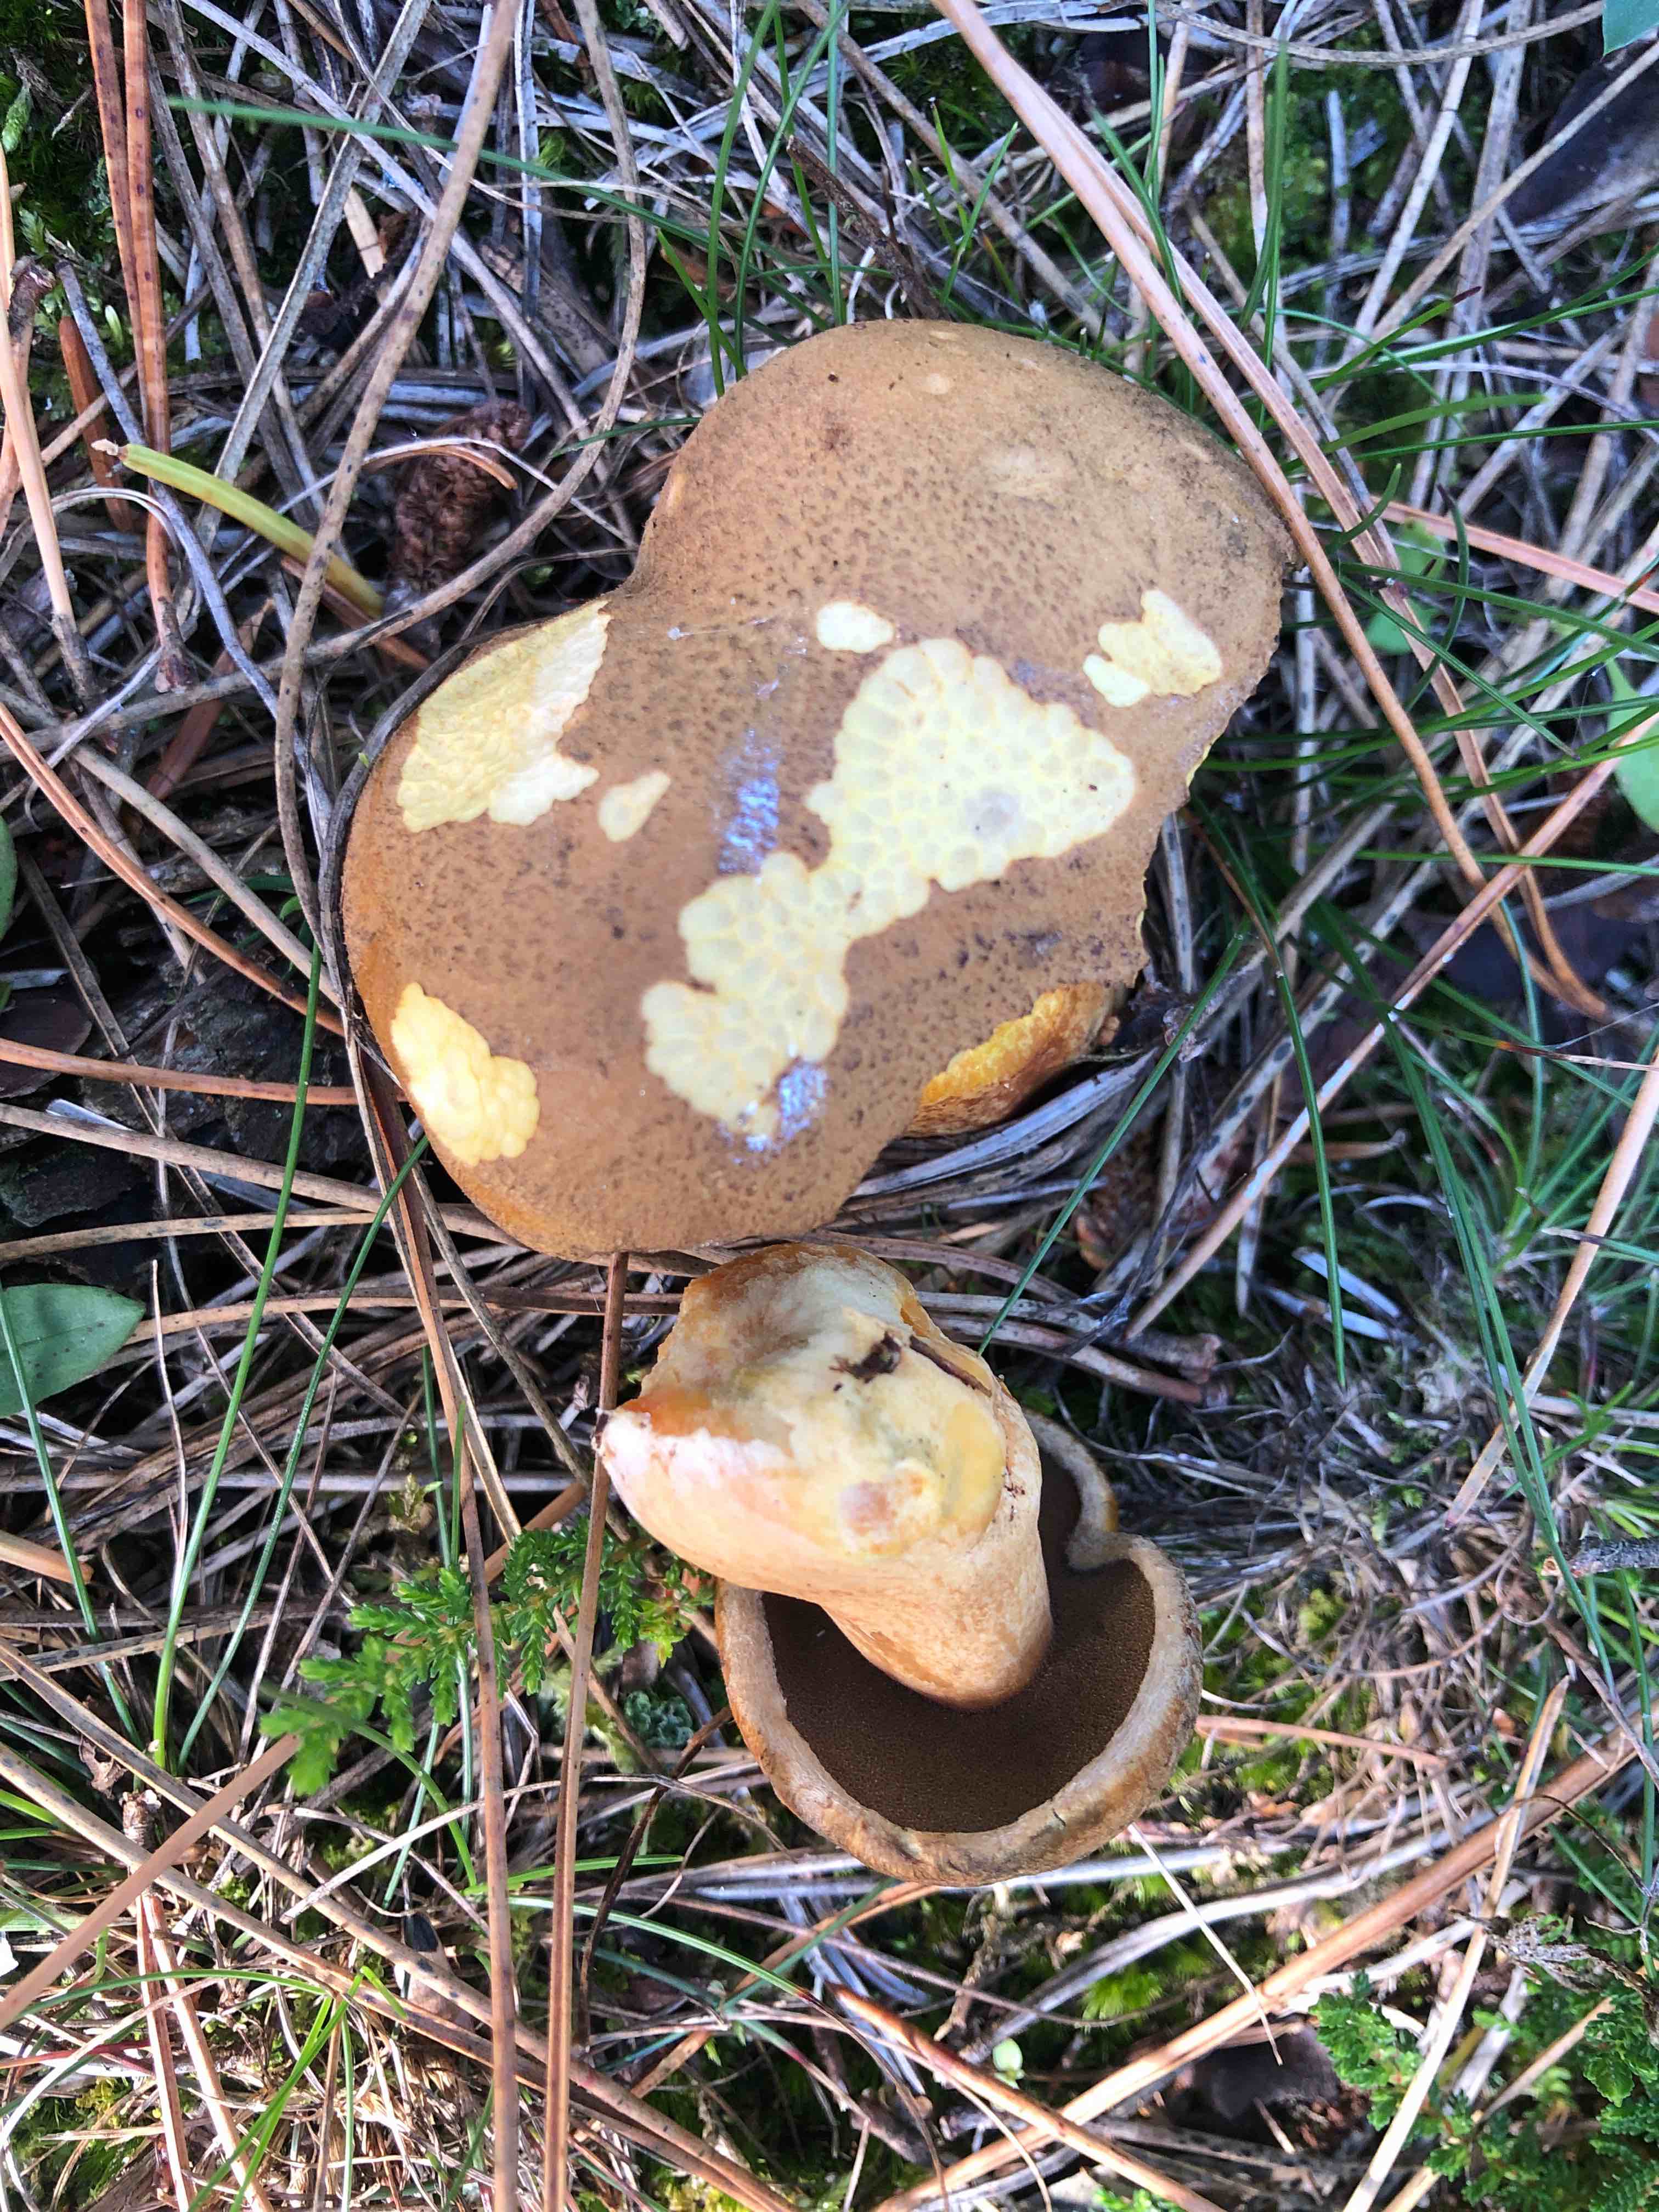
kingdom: Fungi
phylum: Basidiomycota
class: Agaricomycetes
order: Boletales
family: Suillaceae
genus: Suillus
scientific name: Suillus variegatus
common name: broget slimrørhat
